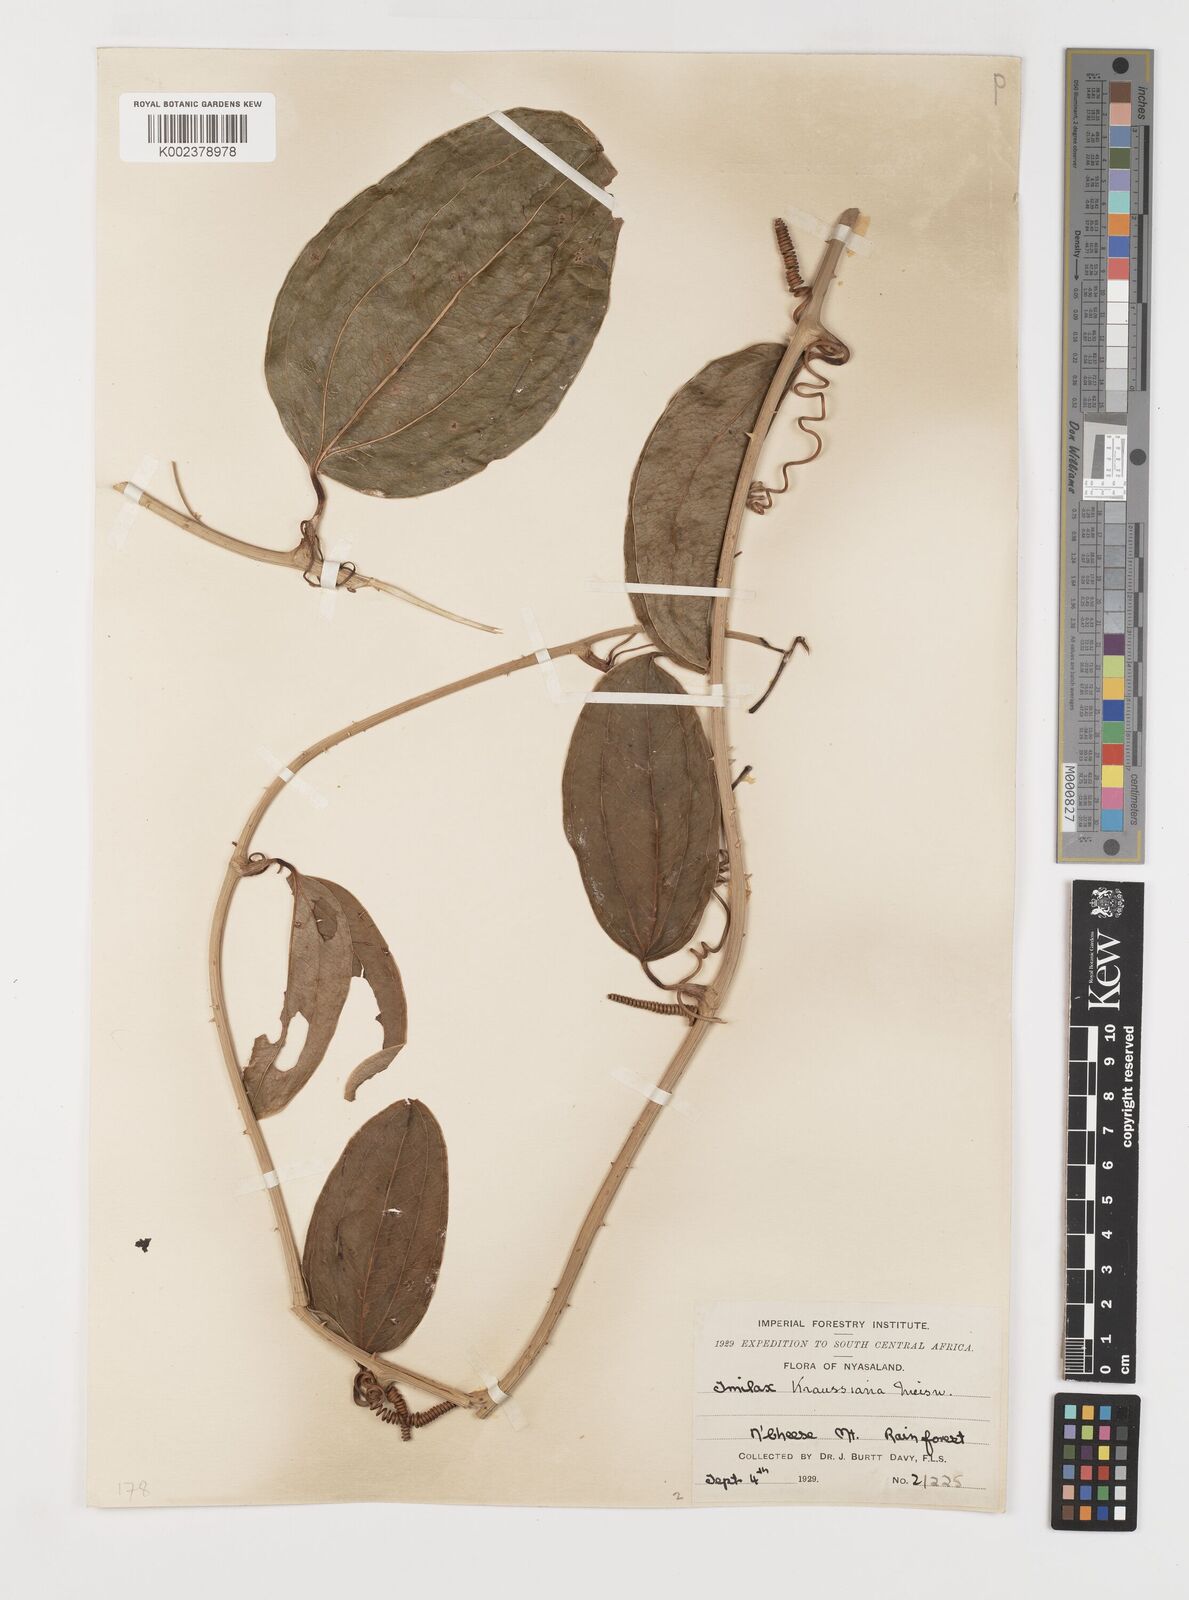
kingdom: Plantae
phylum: Tracheophyta
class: Liliopsida
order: Liliales
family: Smilacaceae
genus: Smilax
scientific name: Smilax anceps
